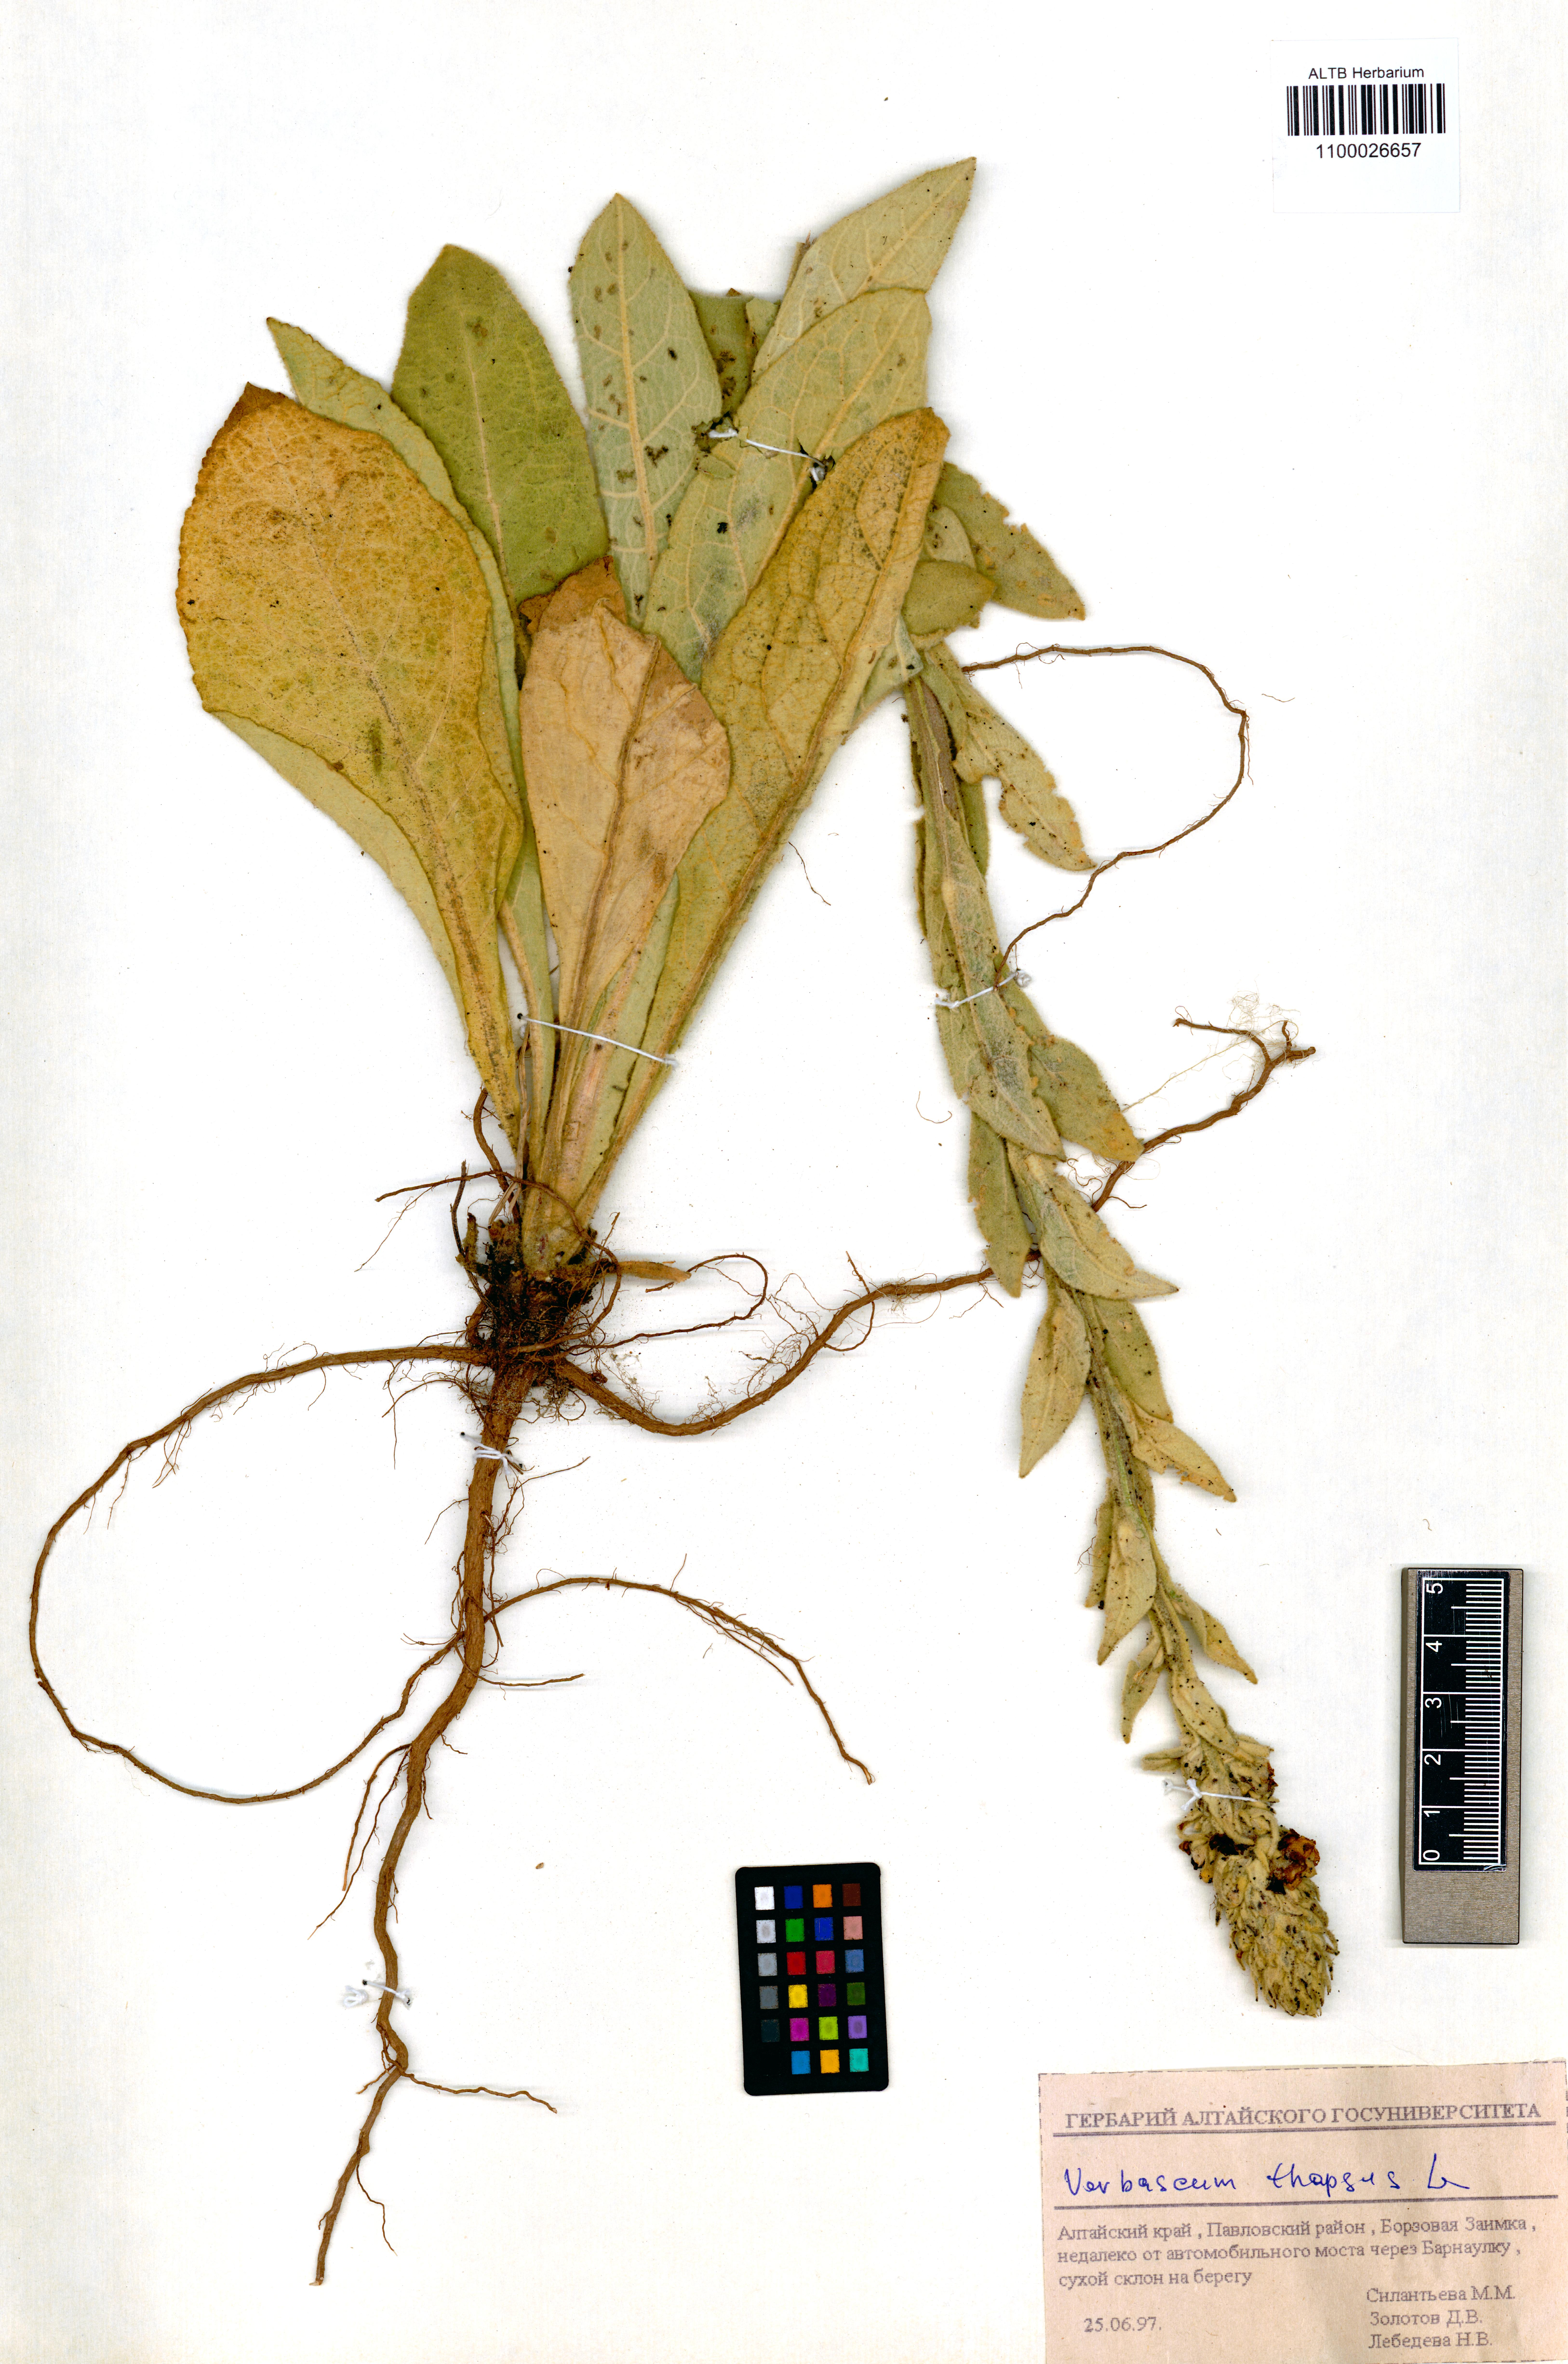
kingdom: Plantae
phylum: Tracheophyta
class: Magnoliopsida
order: Lamiales
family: Scrophulariaceae
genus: Verbascum
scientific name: Verbascum thapsus
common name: Common mullein
